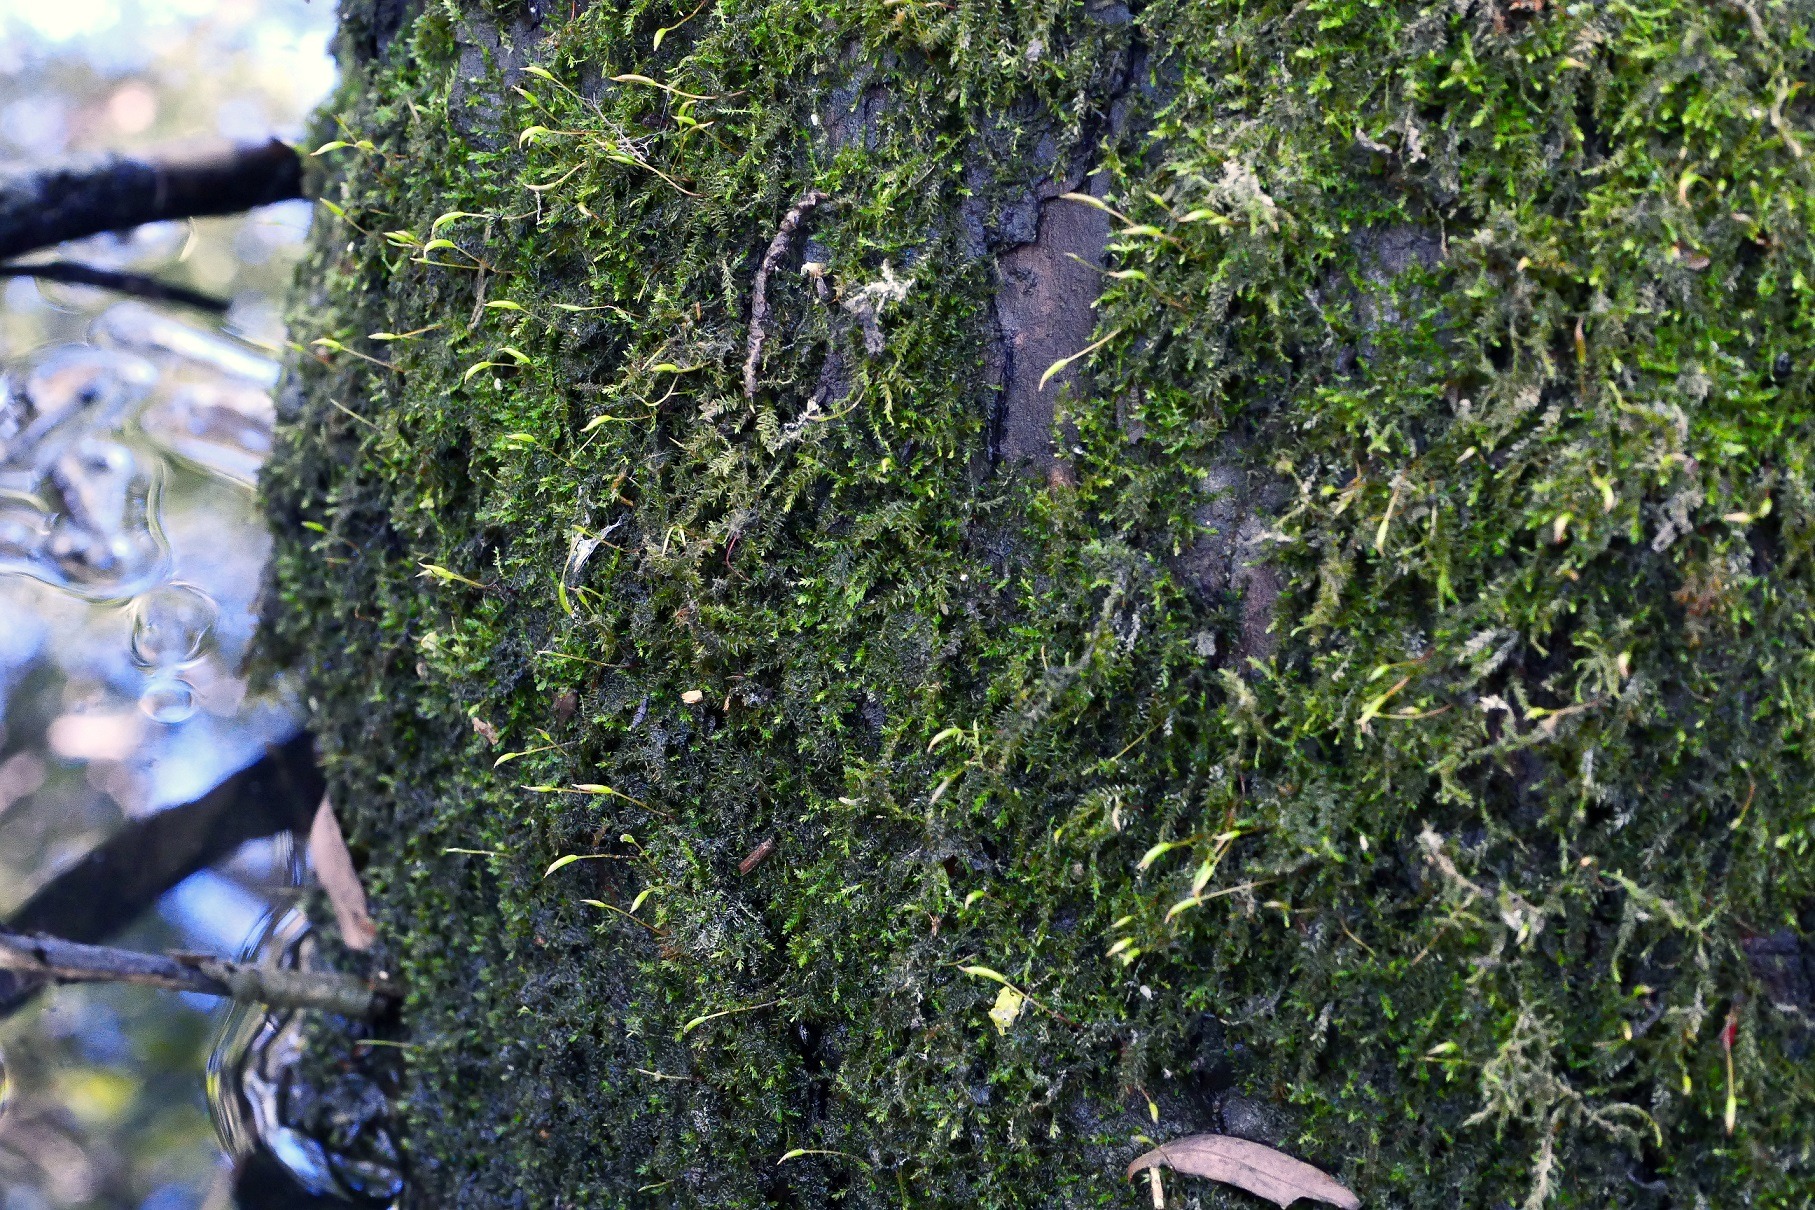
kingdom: Plantae
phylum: Bryophyta
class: Bryopsida
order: Hypnales
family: Leskeaceae
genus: Leskea
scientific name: Leskea polycarpa
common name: Mat lærkemos
